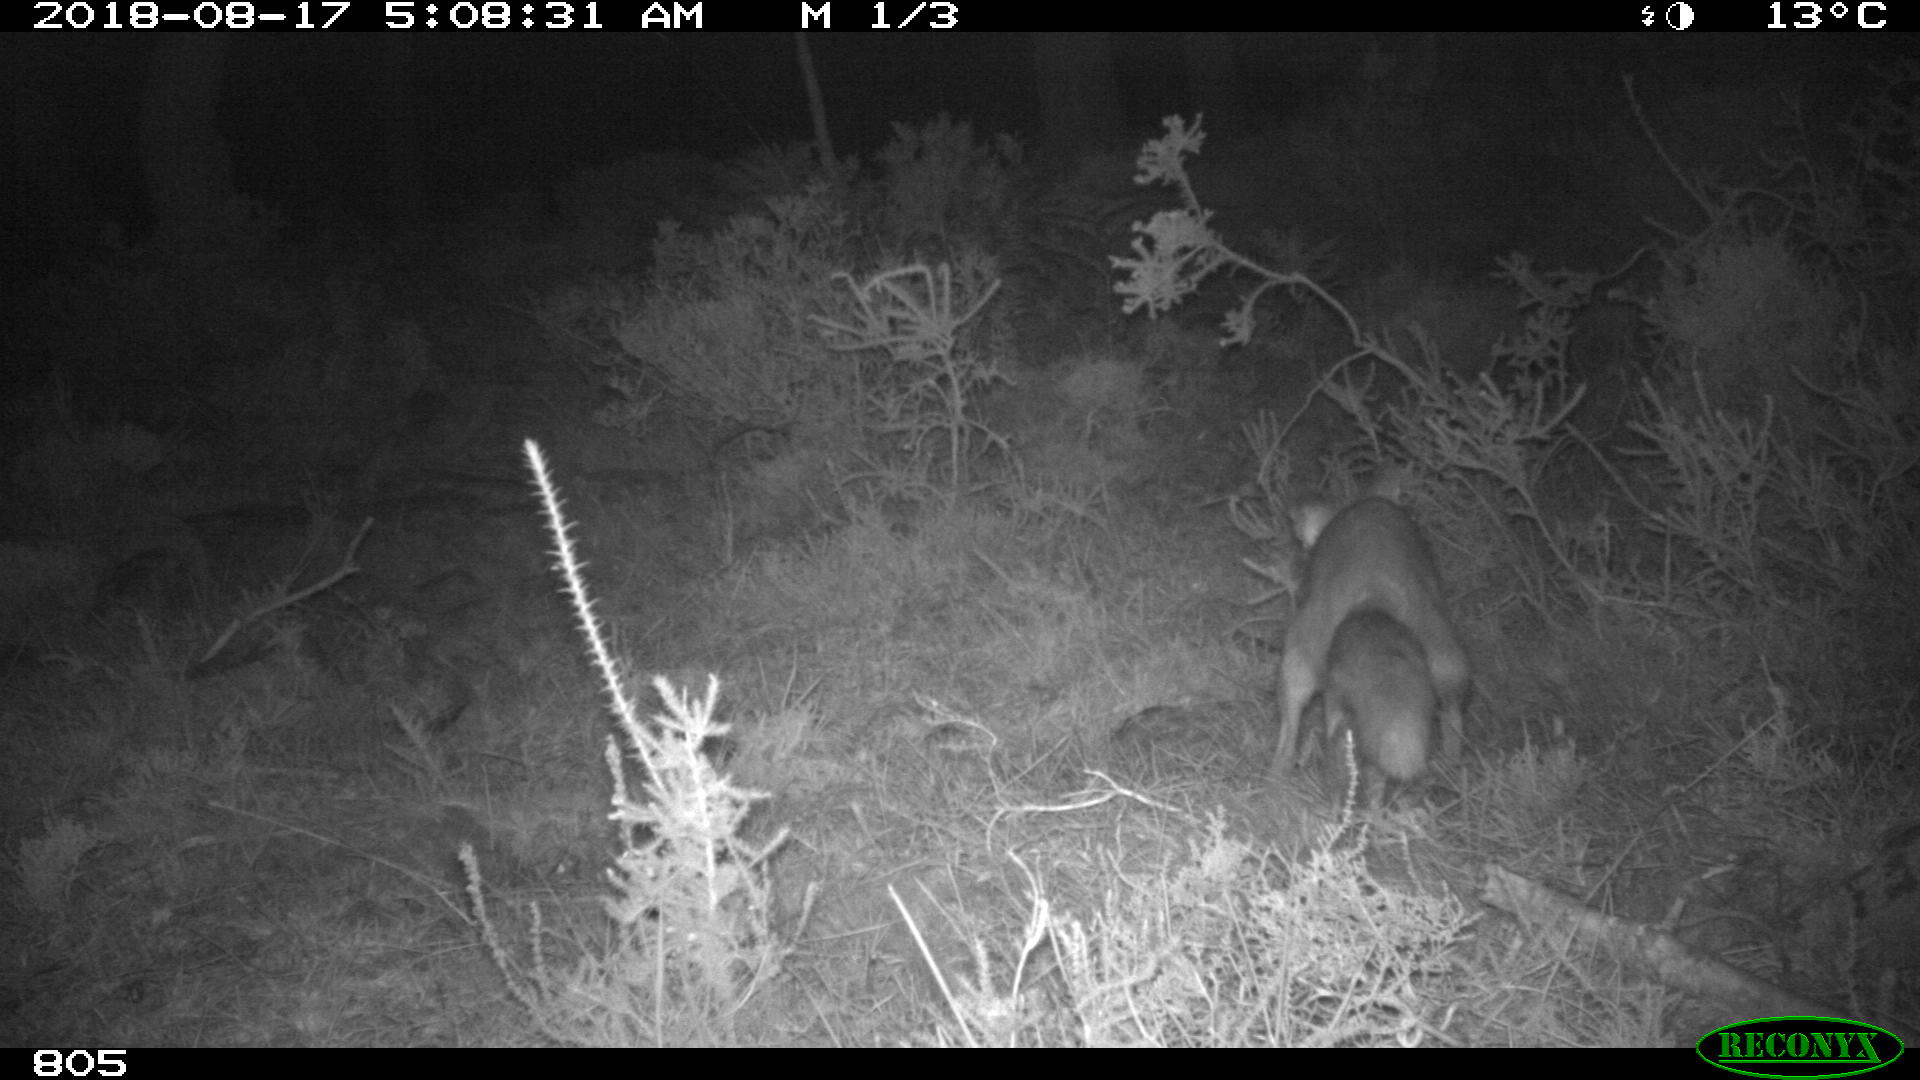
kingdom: Animalia
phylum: Chordata
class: Mammalia
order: Carnivora
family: Canidae
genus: Vulpes
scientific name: Vulpes vulpes
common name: Red fox
